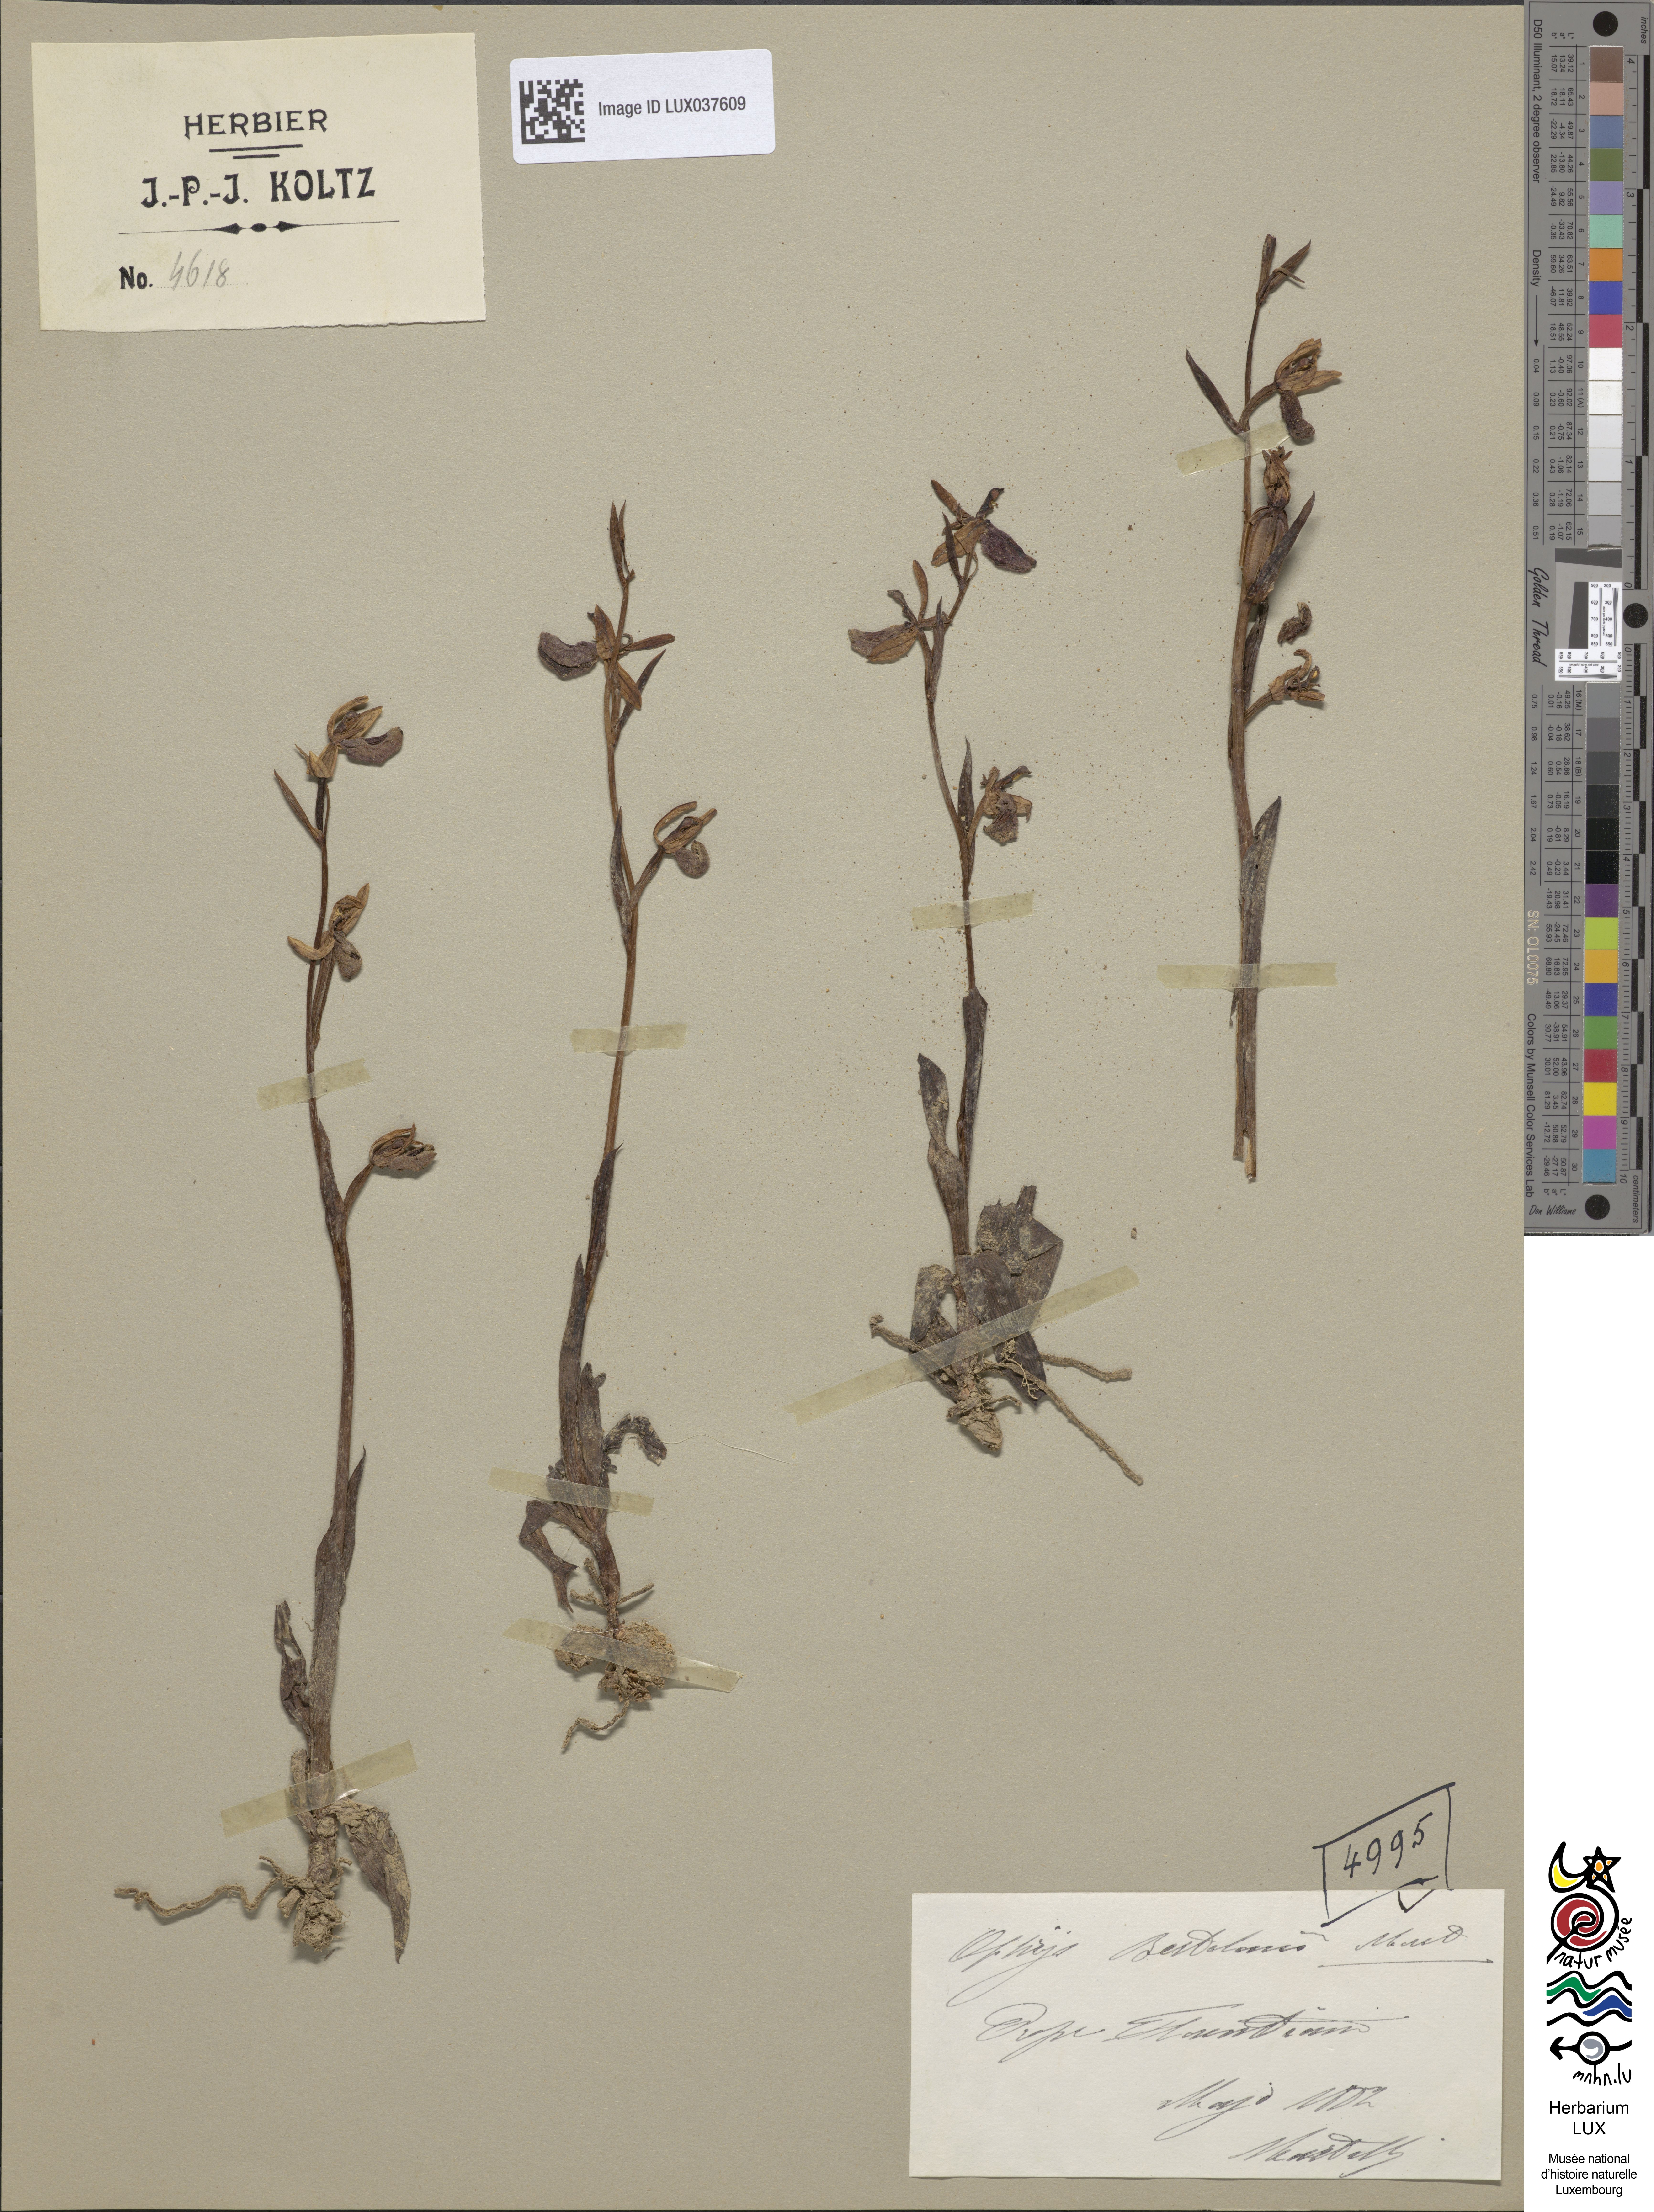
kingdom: Plantae
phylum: Tracheophyta
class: Liliopsida
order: Asparagales
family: Orchidaceae
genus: Ophrys
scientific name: Ophrys bertolonii
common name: Bertoloni's bee orchid
